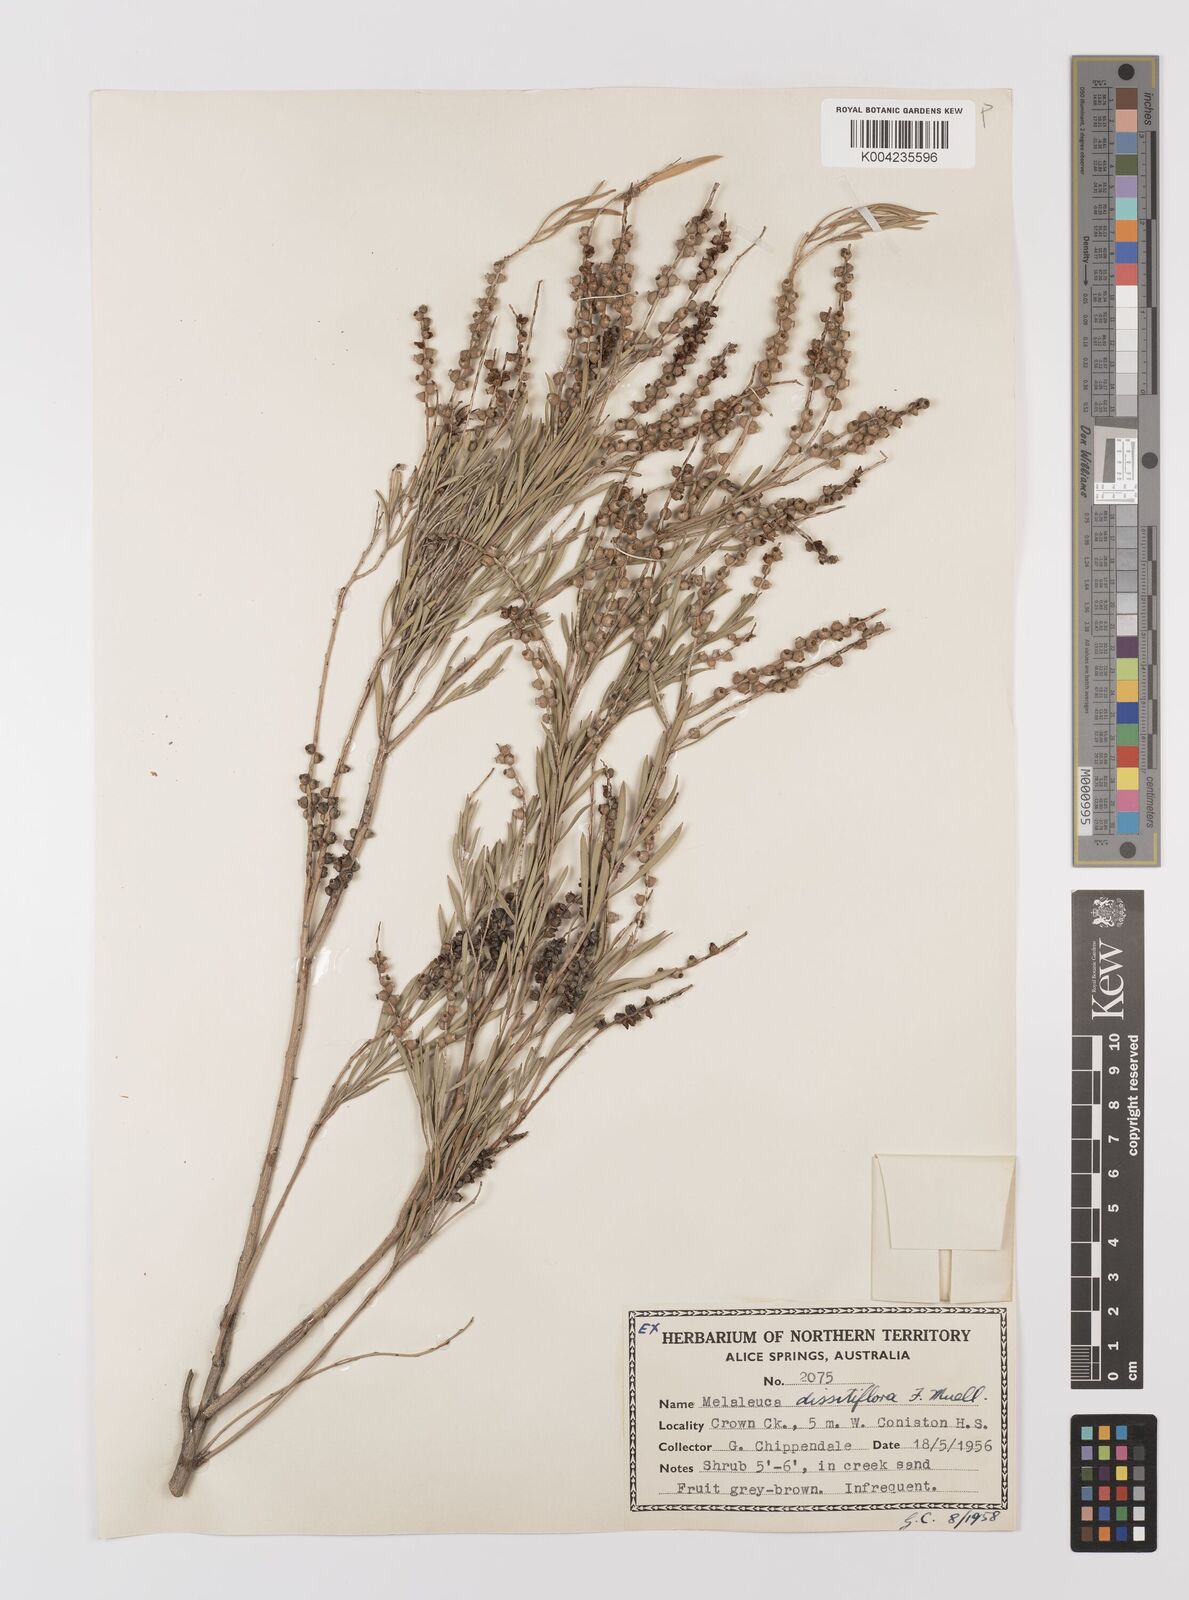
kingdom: Plantae
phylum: Tracheophyta
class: Magnoliopsida
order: Myrtales
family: Myrtaceae
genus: Melaleuca
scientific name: Melaleuca dissitiflora
